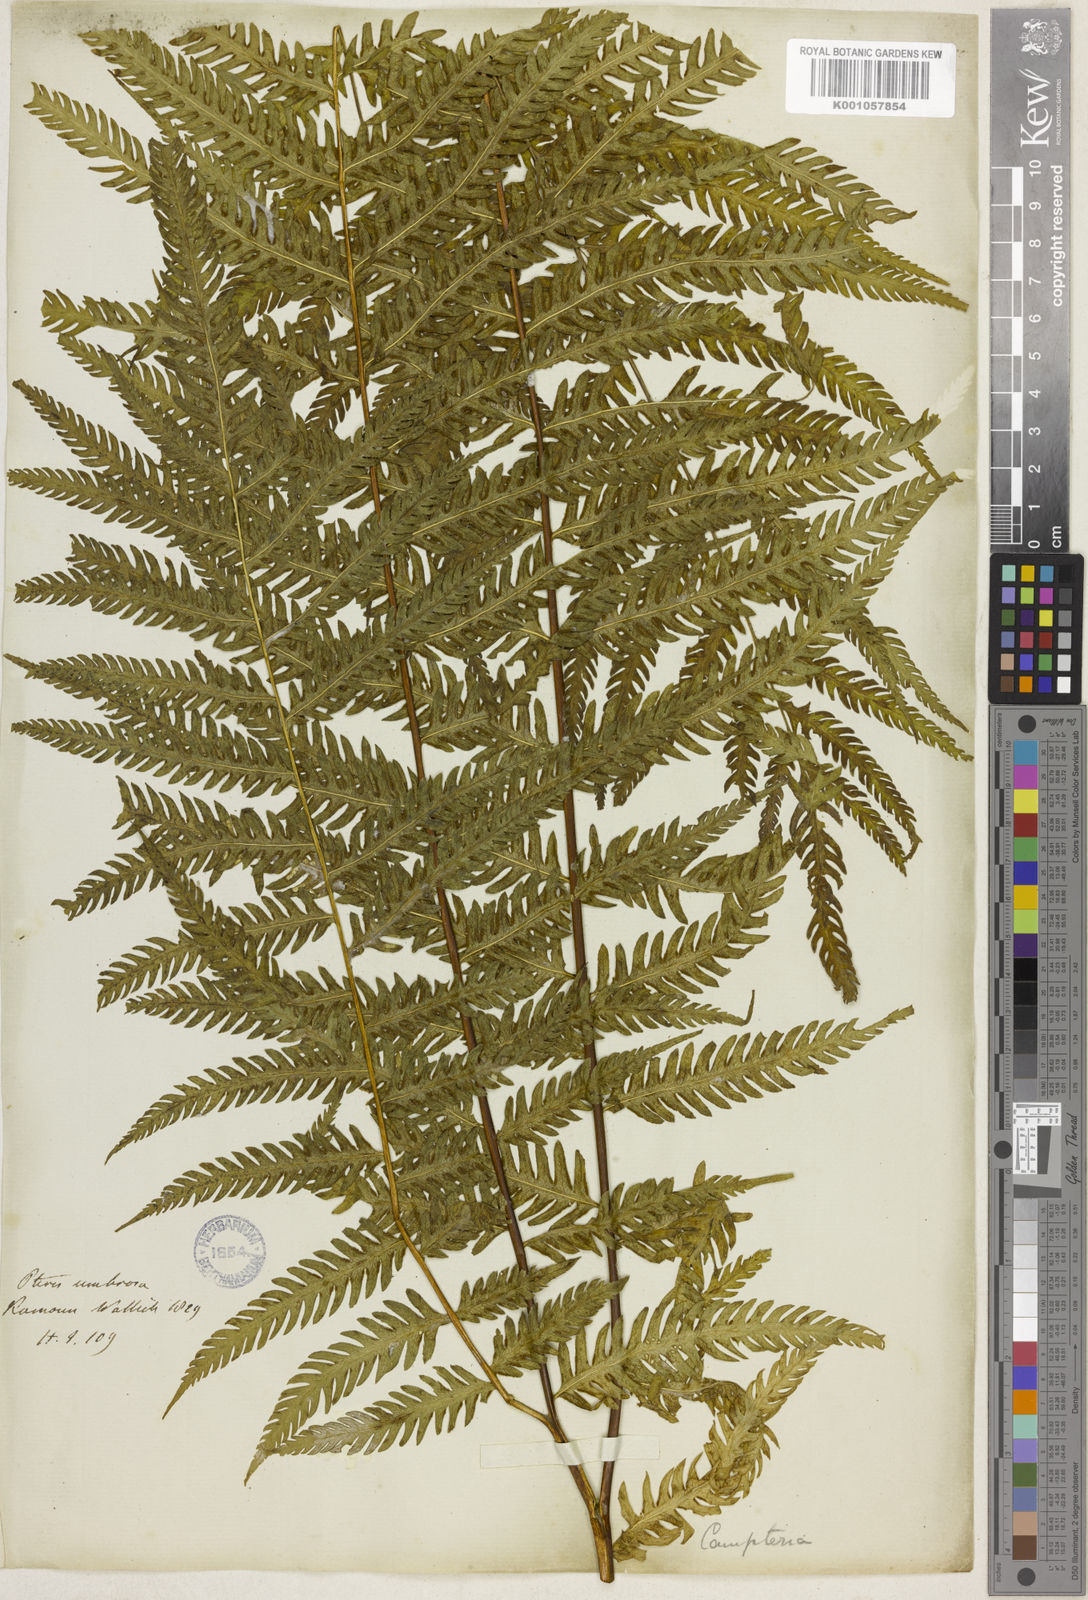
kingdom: Plantae
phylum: Tracheophyta
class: Polypodiopsida
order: Polypodiales
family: Pteridaceae
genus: Pteris
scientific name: Pteris longipes
